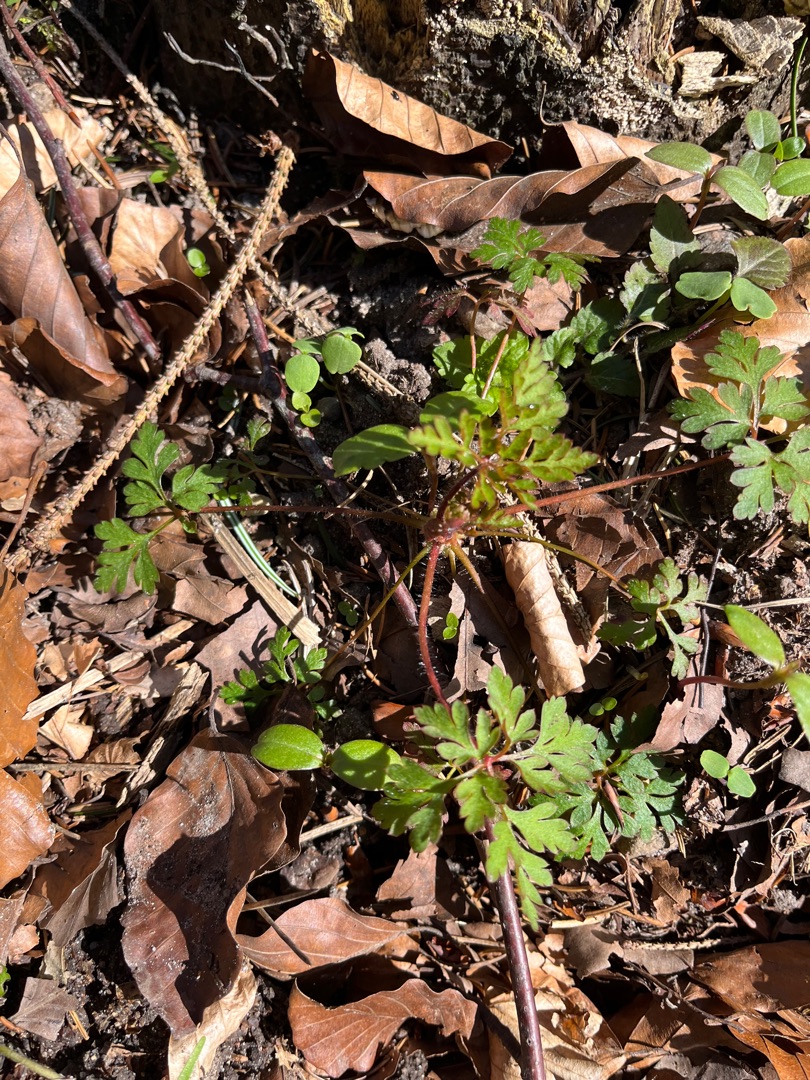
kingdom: Plantae
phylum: Tracheophyta
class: Magnoliopsida
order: Geraniales
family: Geraniaceae
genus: Geranium
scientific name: Geranium robertianum
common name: Stinkende storkenæb
